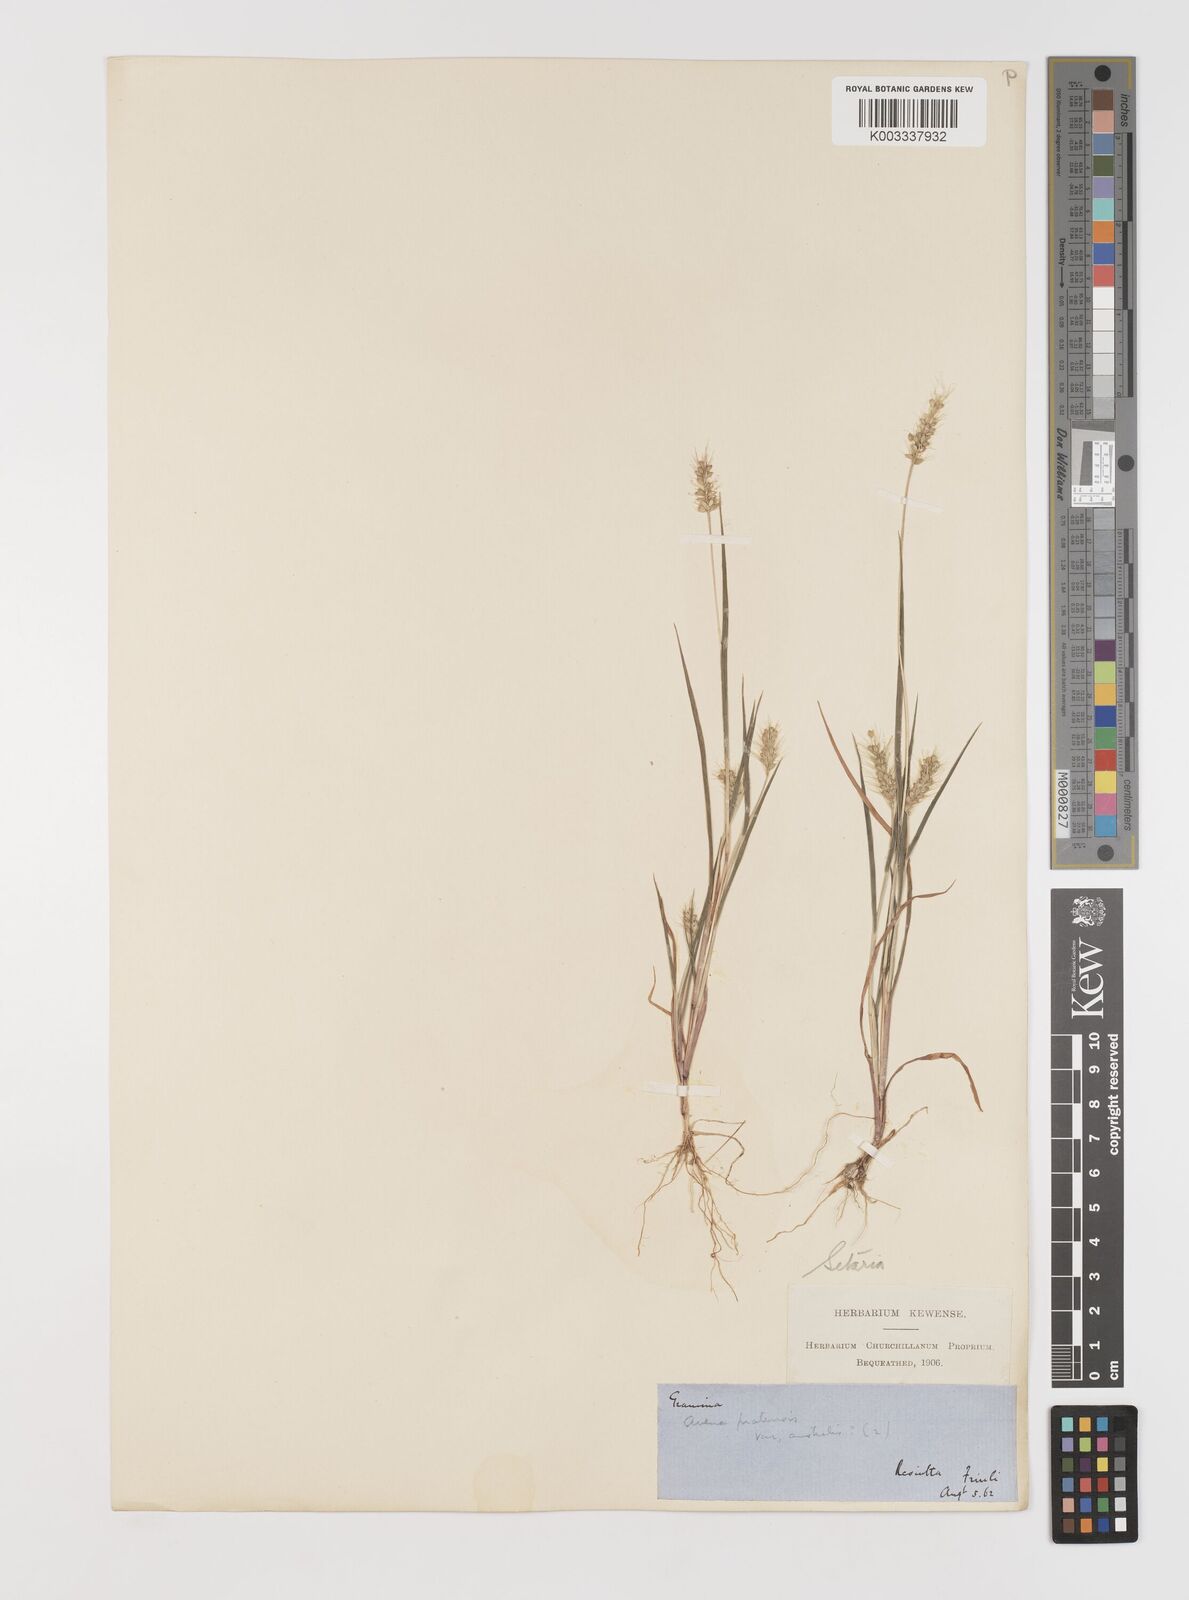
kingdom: Plantae
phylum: Tracheophyta
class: Liliopsida
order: Poales
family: Poaceae
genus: Setaria
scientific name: Setaria viridis
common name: Green bristlegrass
